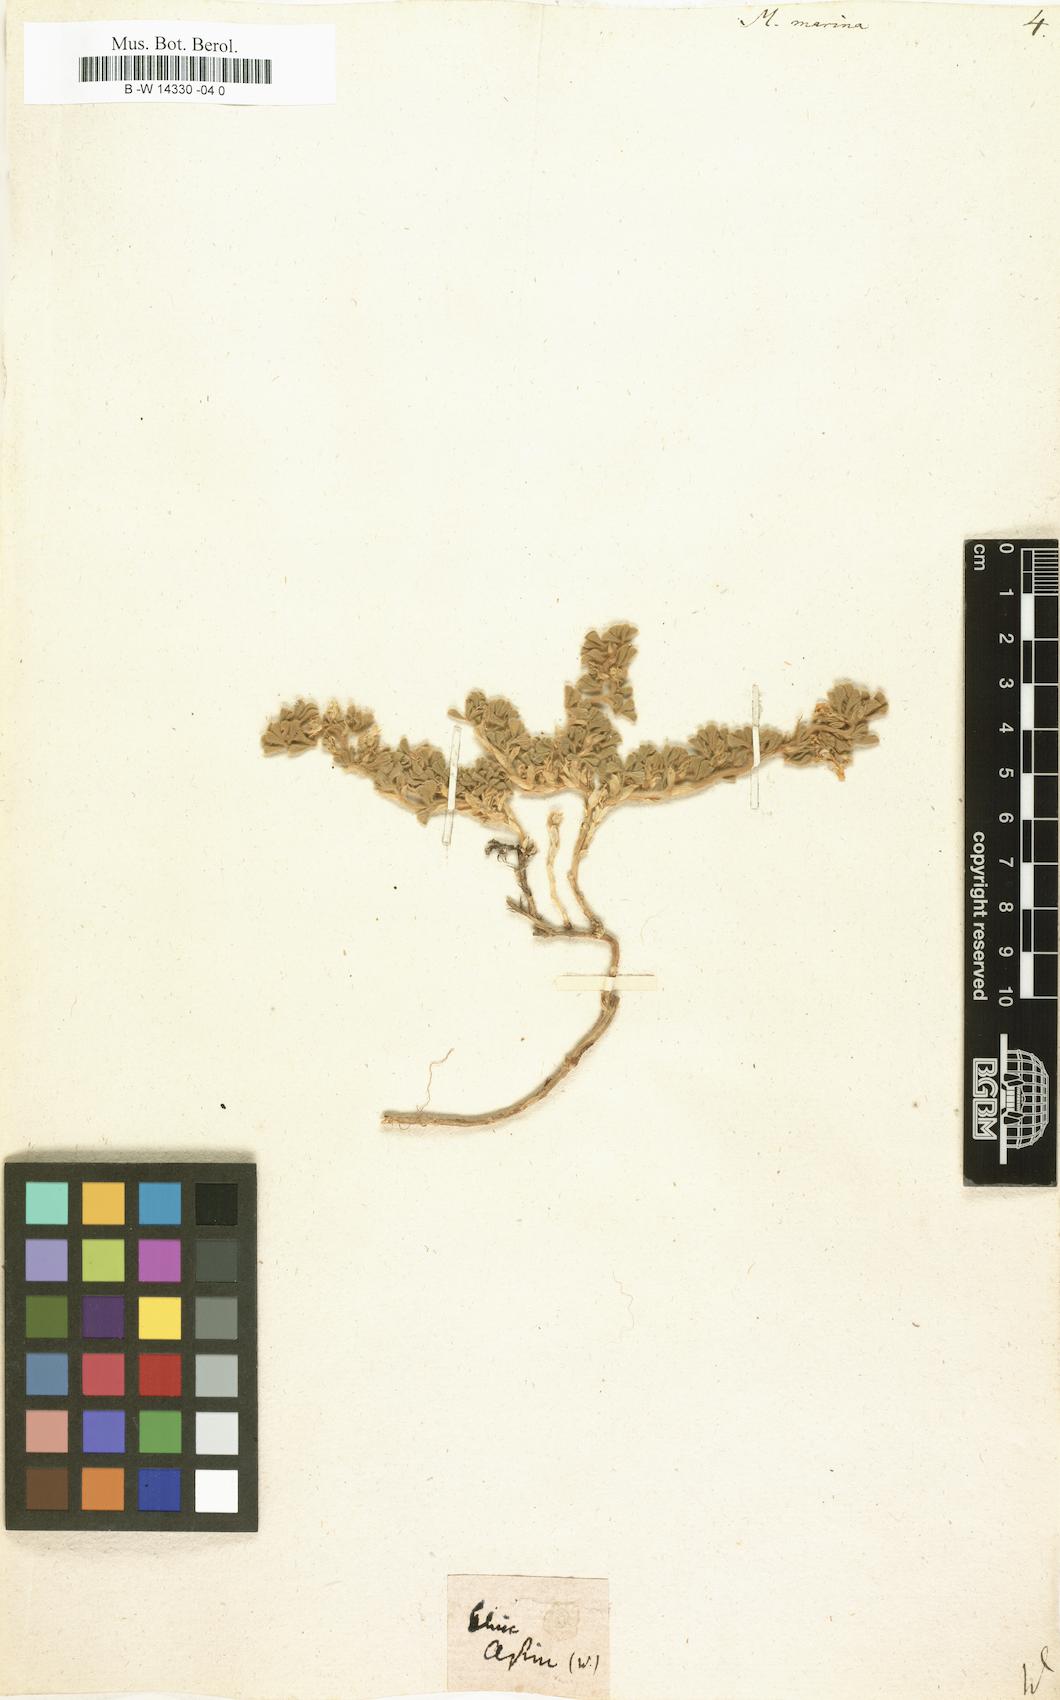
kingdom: Plantae
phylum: Tracheophyta
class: Magnoliopsida
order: Fabales
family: Fabaceae
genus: Medicago
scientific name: Medicago marina
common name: Sea medick
